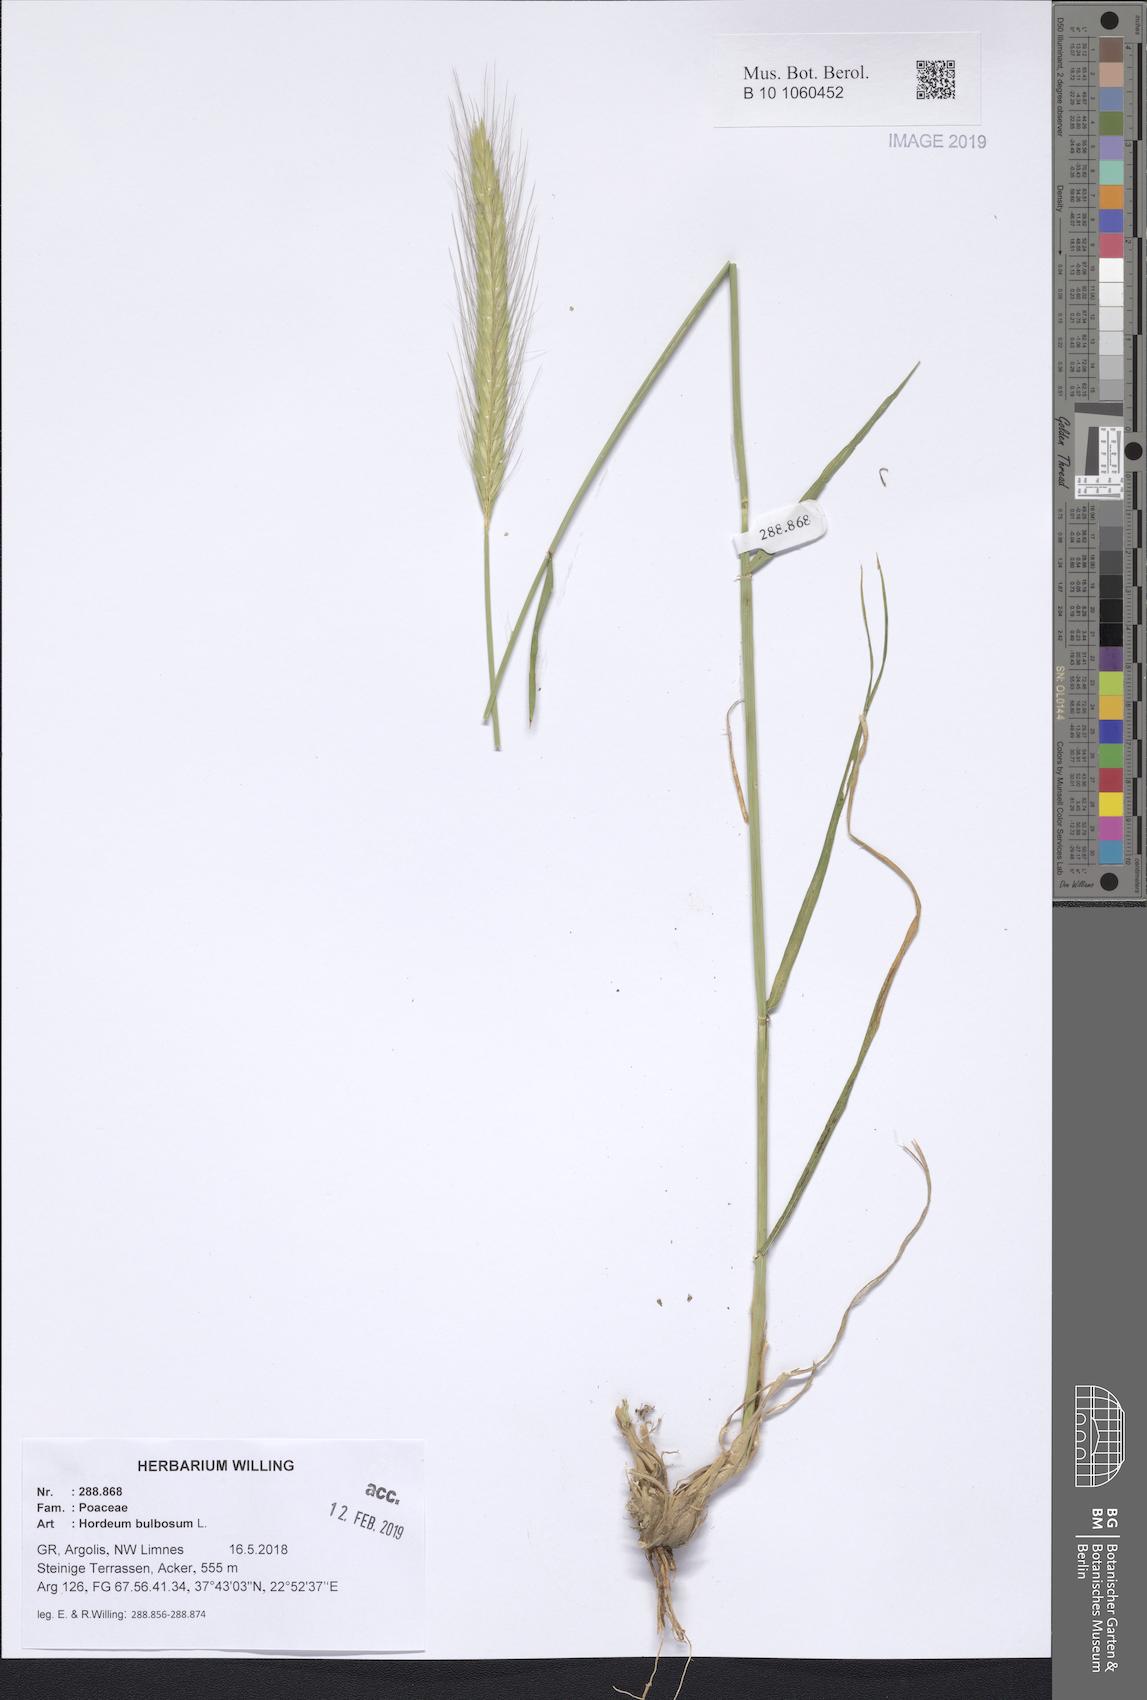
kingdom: Plantae
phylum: Tracheophyta
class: Liliopsida
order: Poales
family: Poaceae
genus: Hordeum
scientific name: Hordeum bulbosum
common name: Bulbous barley
